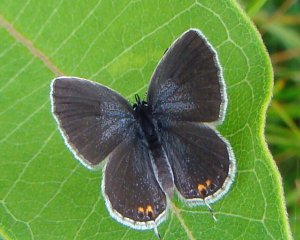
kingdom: Animalia
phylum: Arthropoda
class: Insecta
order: Lepidoptera
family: Lycaenidae
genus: Elkalyce
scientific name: Elkalyce comyntas
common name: Eastern Tailed-Blue
